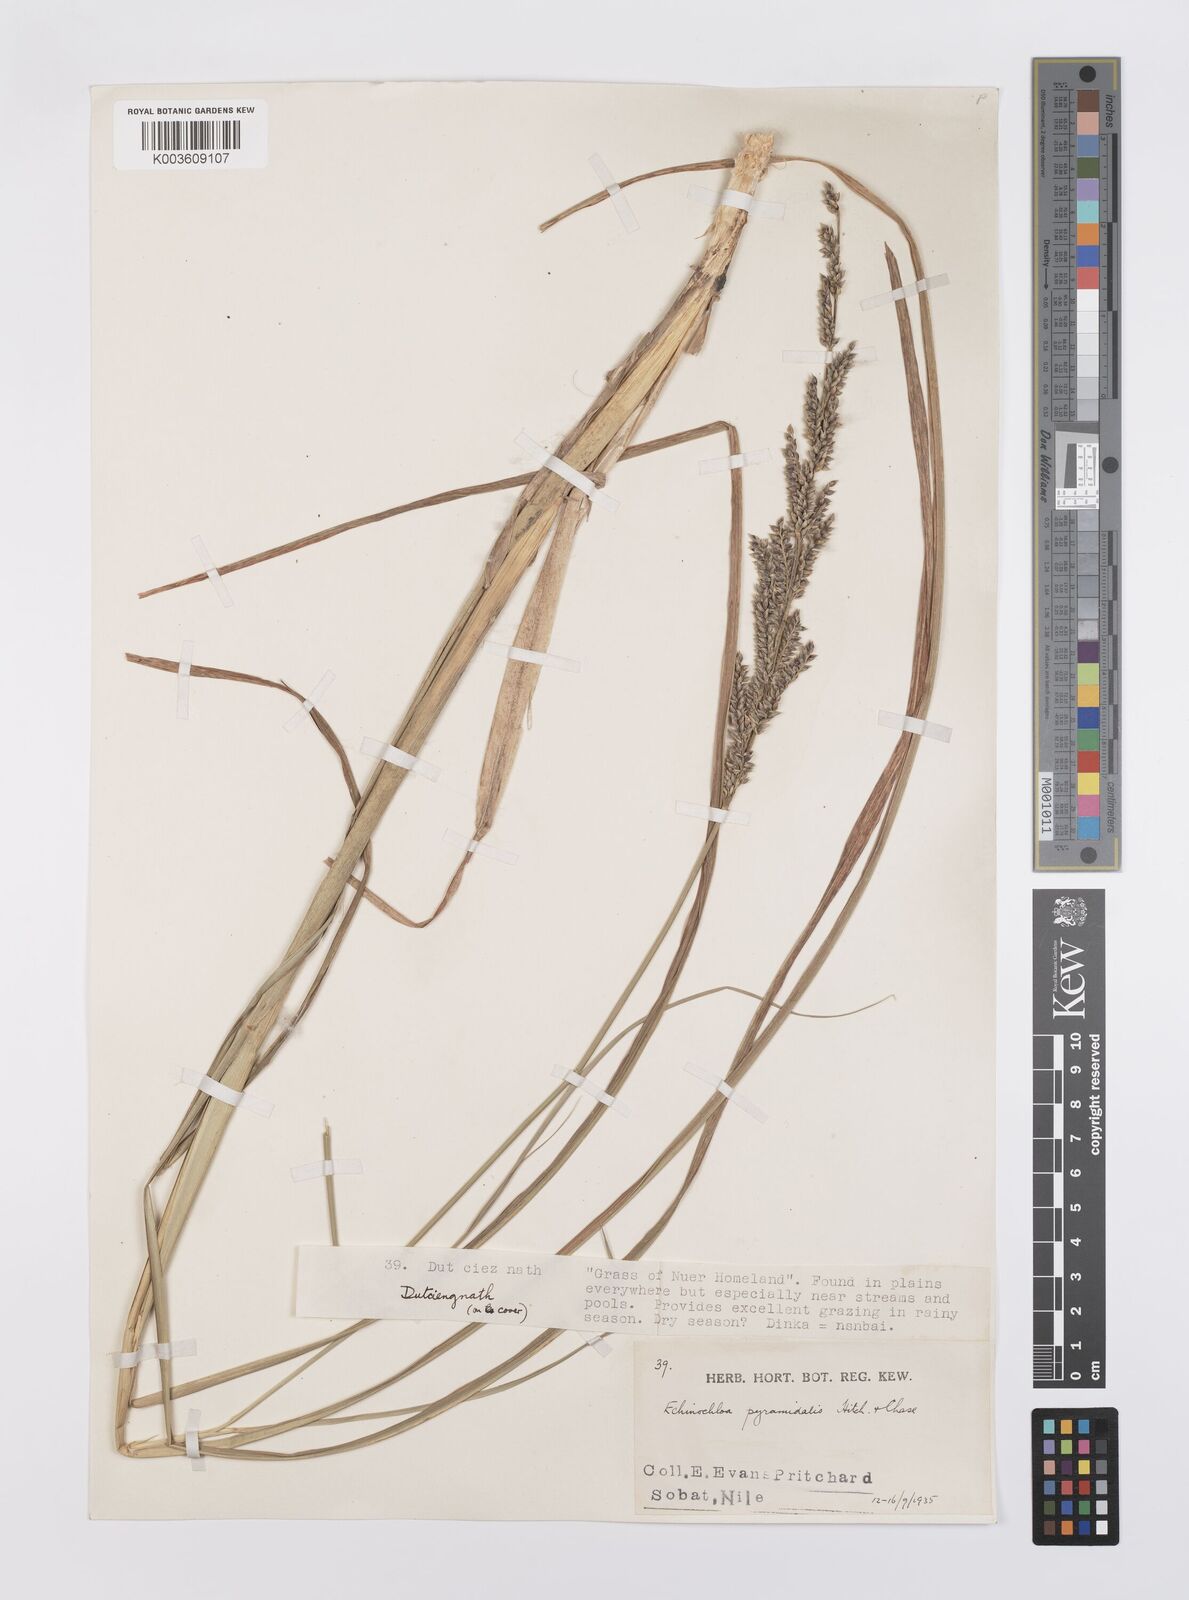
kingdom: Plantae
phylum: Tracheophyta
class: Liliopsida
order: Poales
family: Poaceae
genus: Echinochloa
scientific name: Echinochloa pyramidalis
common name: Antelope grass
